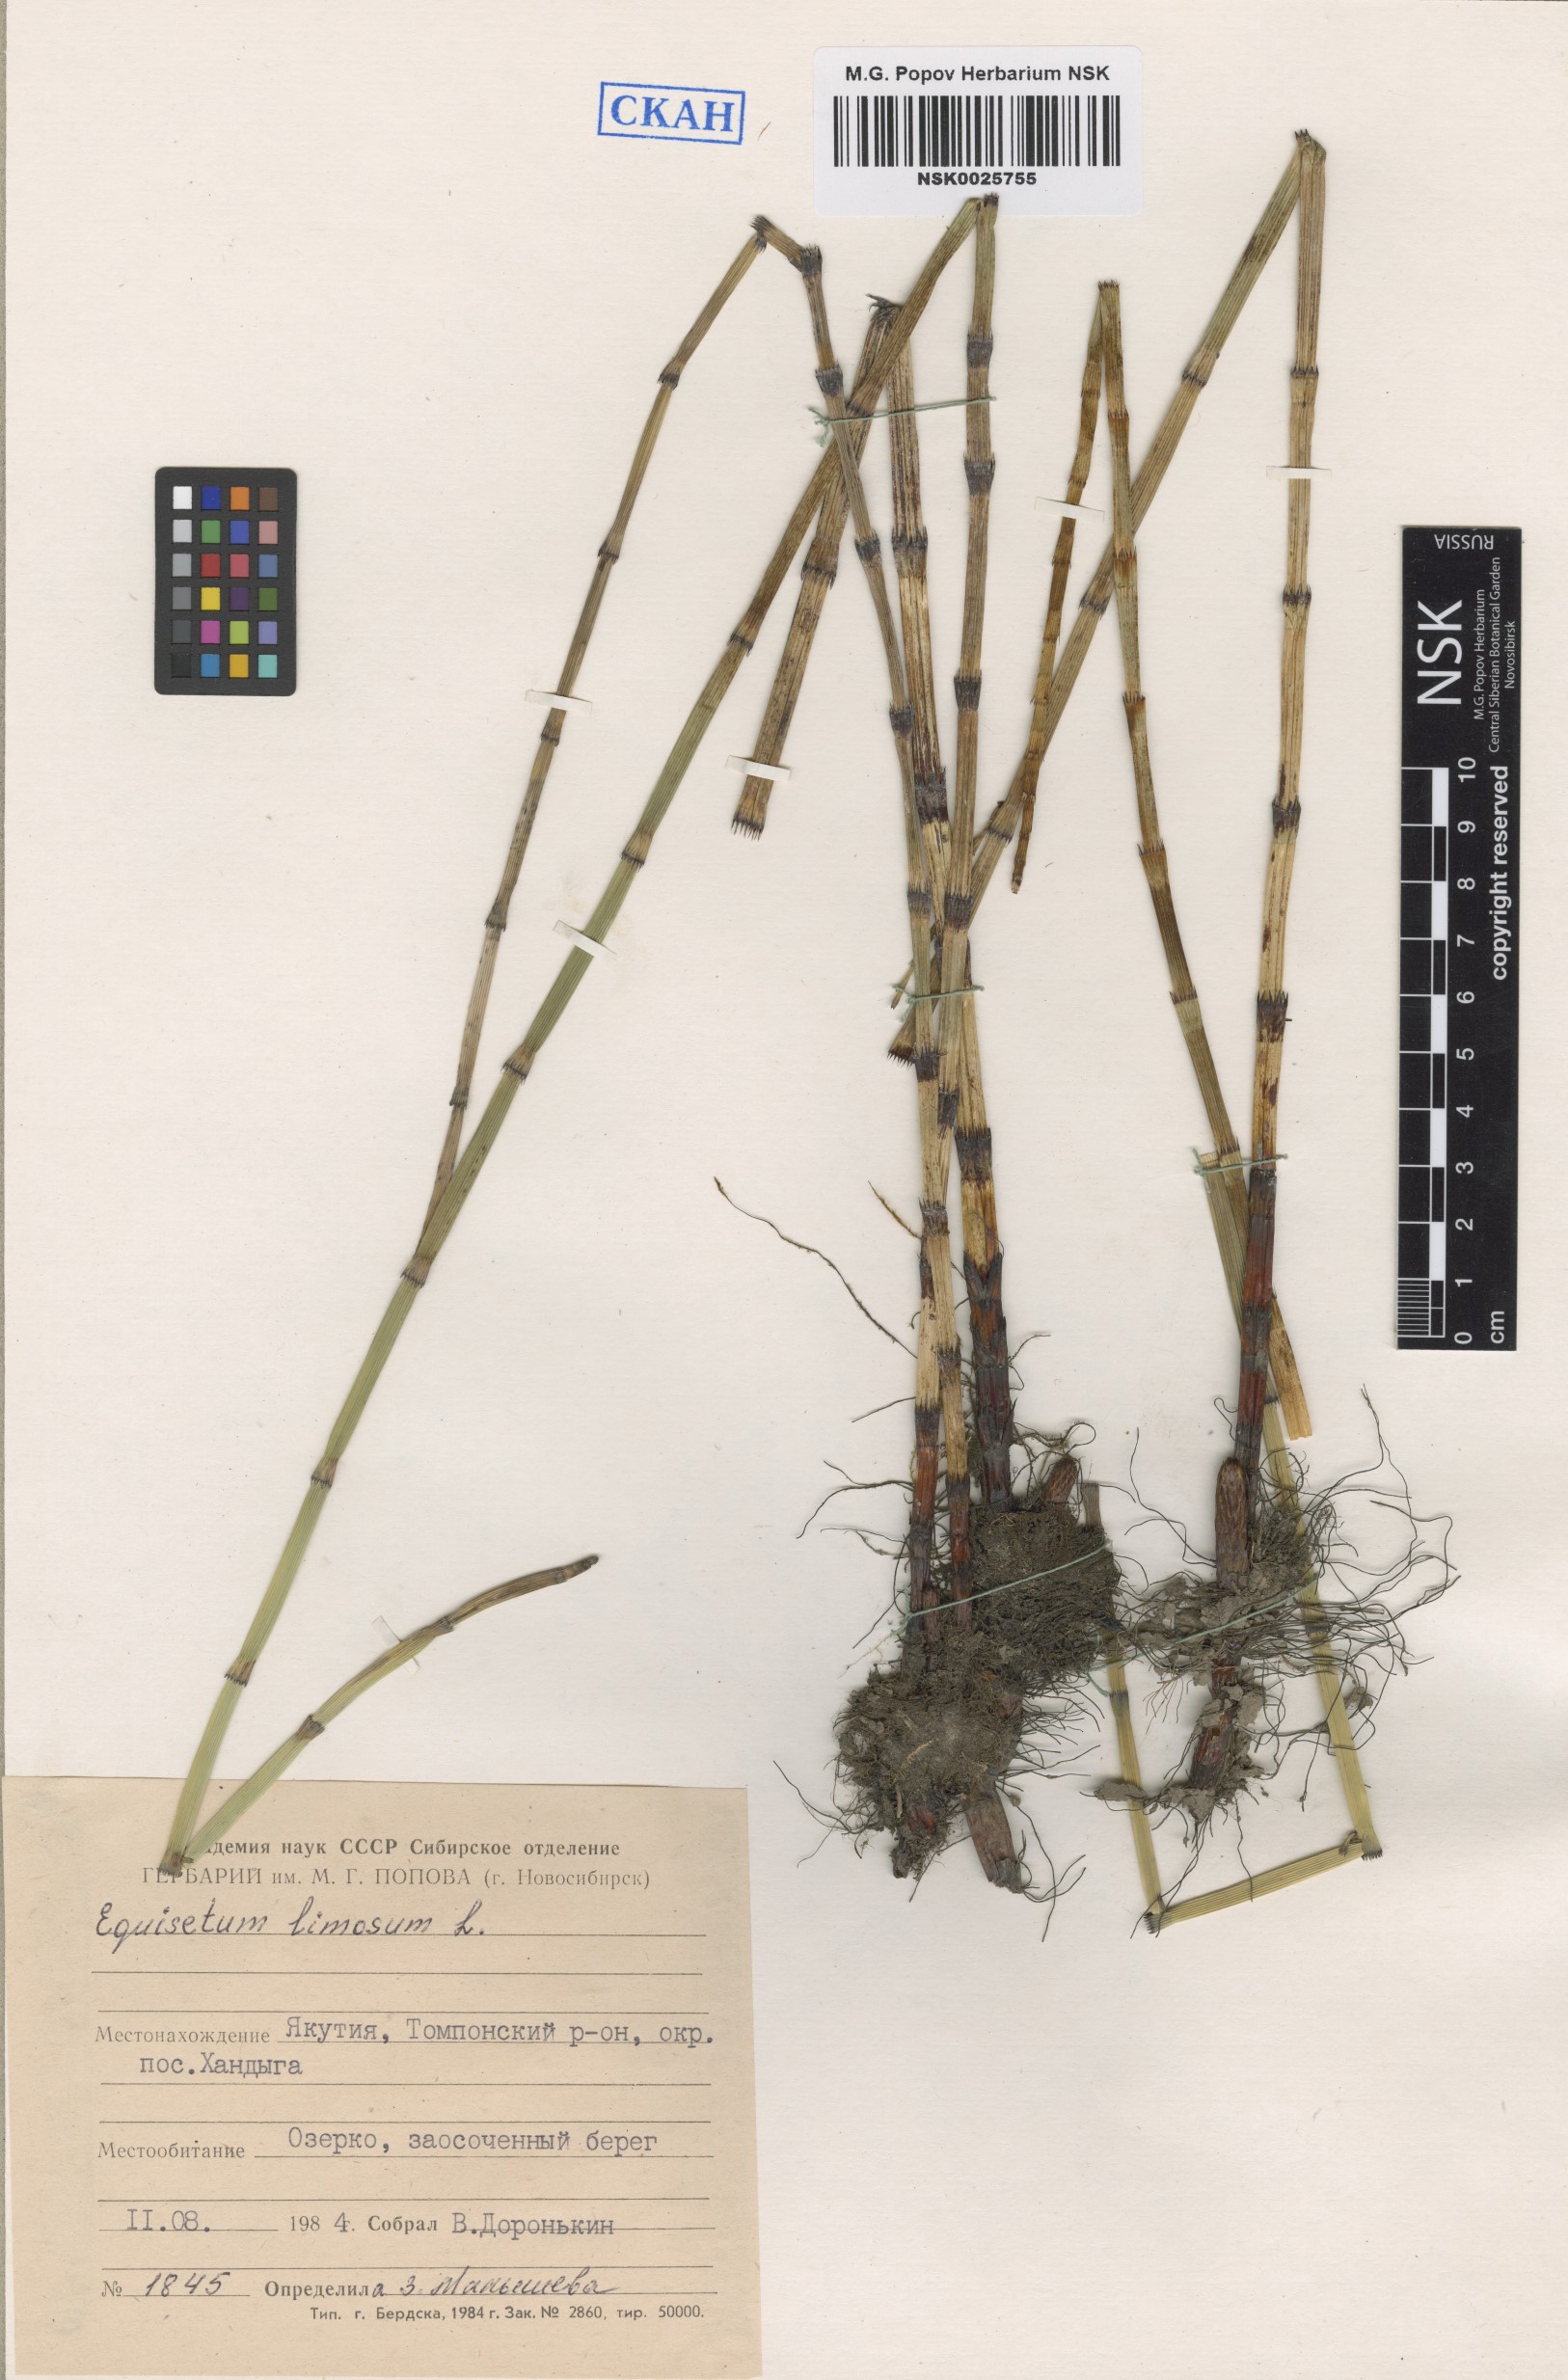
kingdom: Plantae
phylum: Tracheophyta
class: Polypodiopsida
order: Equisetales
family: Equisetaceae
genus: Equisetum
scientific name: Equisetum fluviatile
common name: Water horsetail
